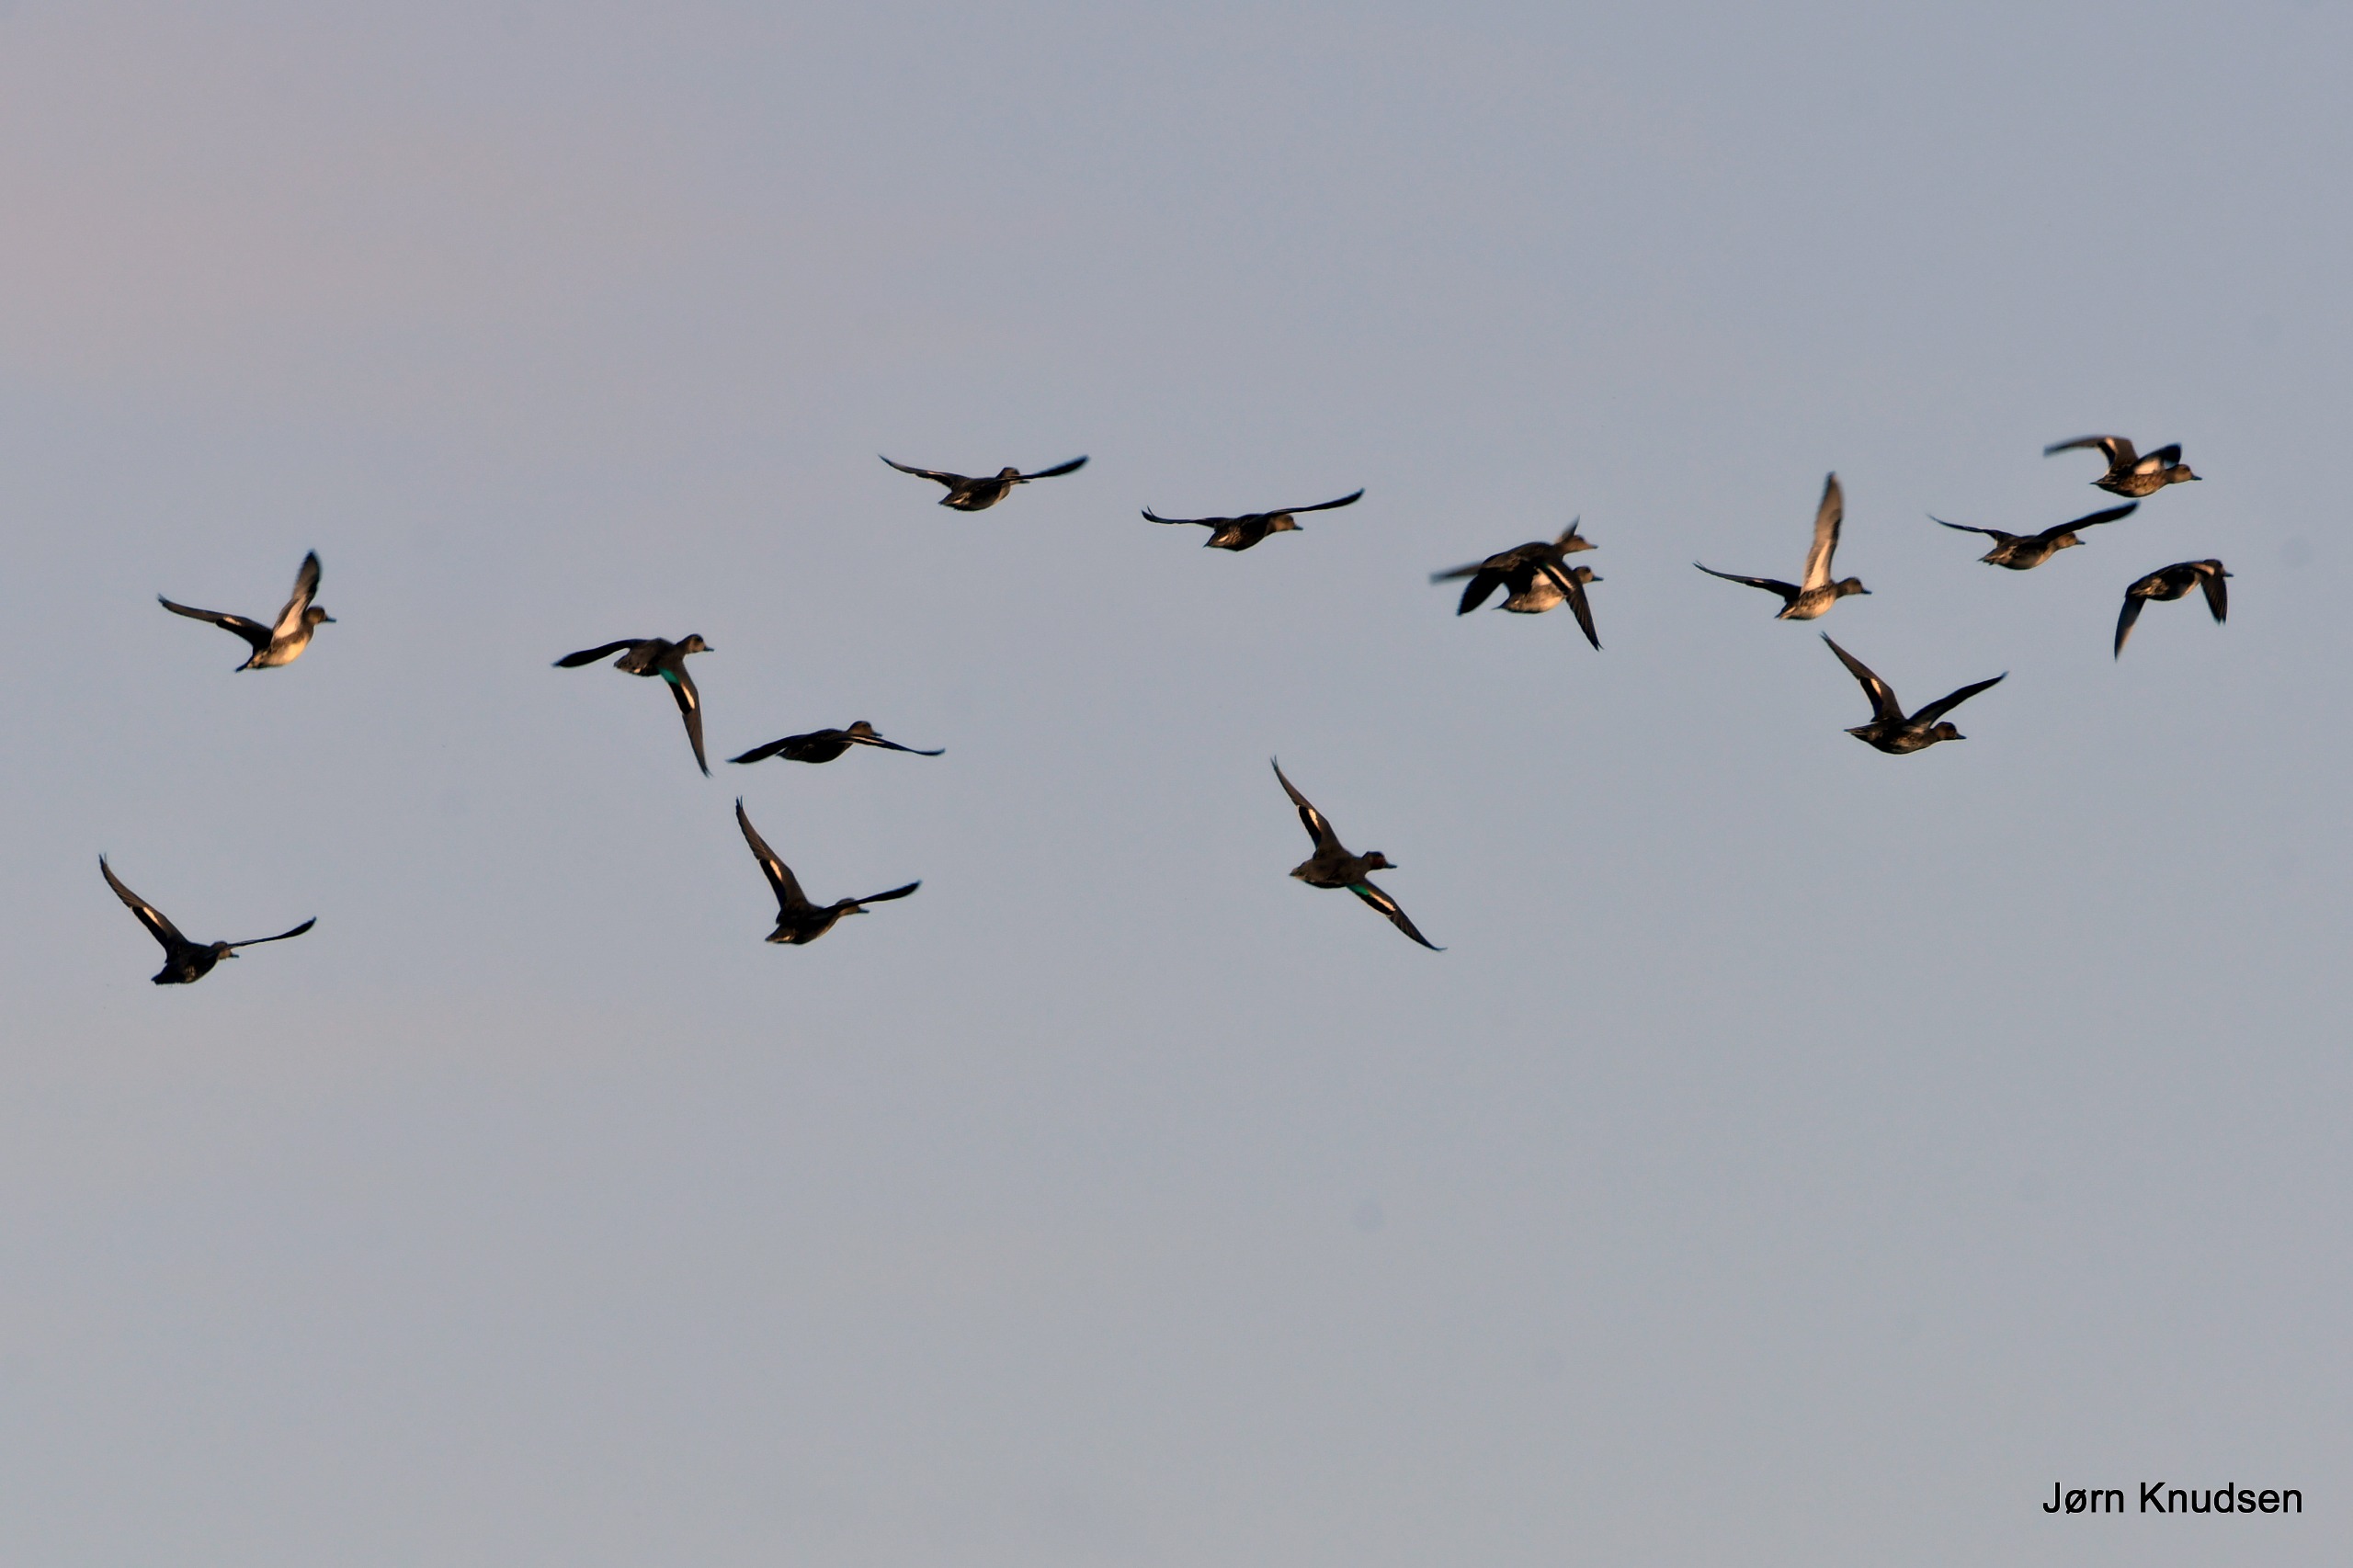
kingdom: Animalia
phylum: Chordata
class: Aves
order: Anseriformes
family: Anatidae
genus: Anas
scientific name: Anas crecca
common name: Krikand
